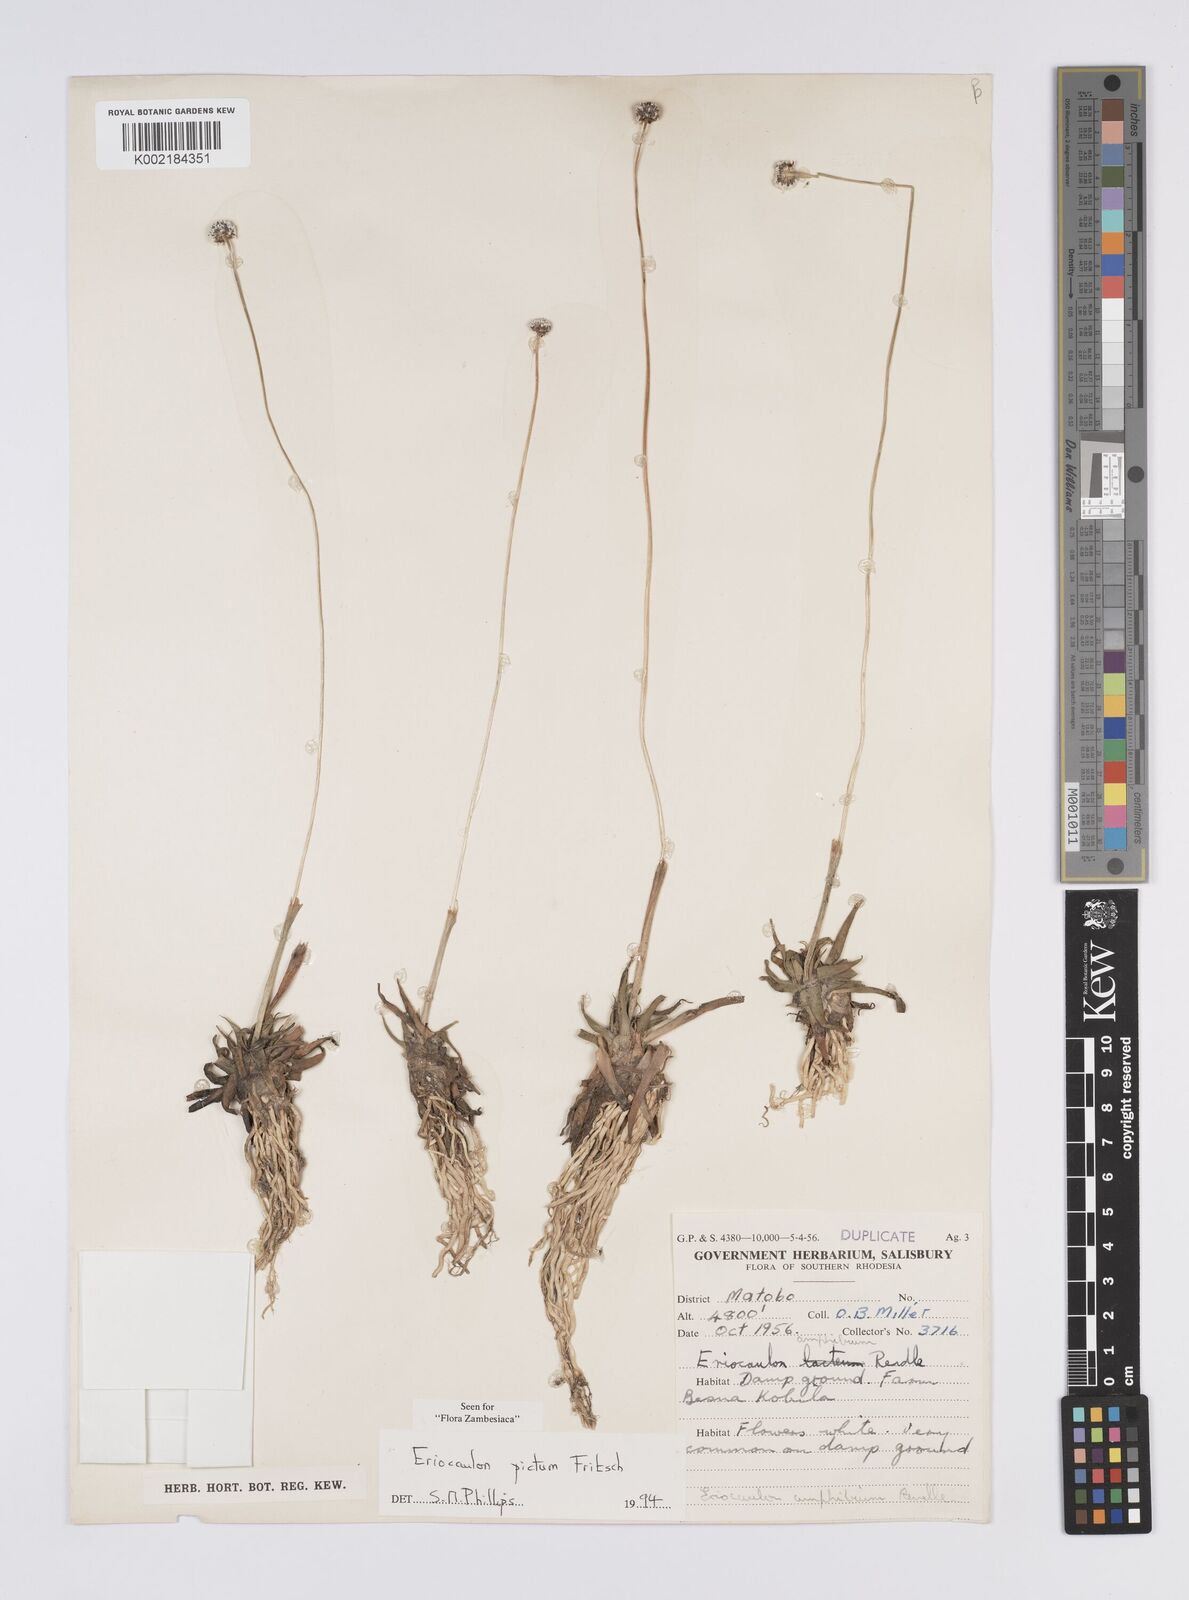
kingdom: Plantae
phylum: Tracheophyta
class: Liliopsida
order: Poales
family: Eriocaulaceae
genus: Eriocaulon
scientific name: Eriocaulon pictum
